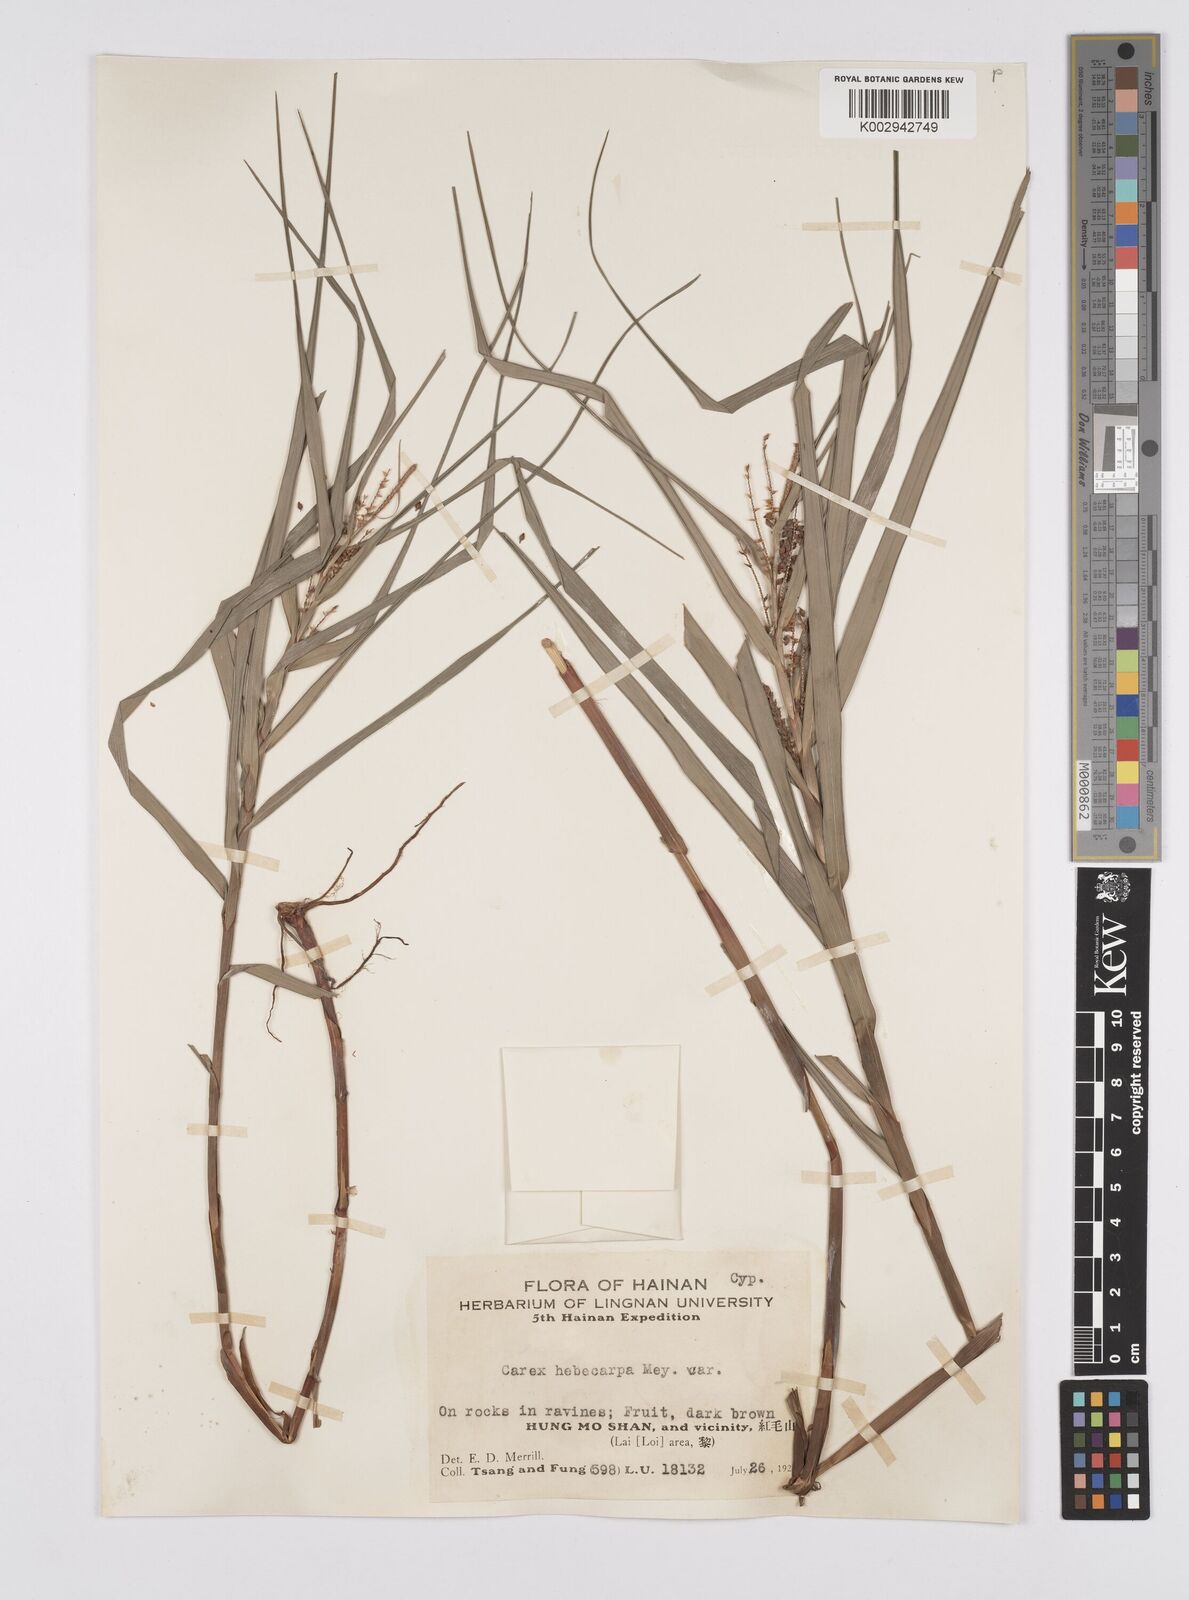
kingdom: Plantae
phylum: Tracheophyta
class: Liliopsida
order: Poales
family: Cyperaceae
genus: Carex
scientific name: Carex maubertiana
